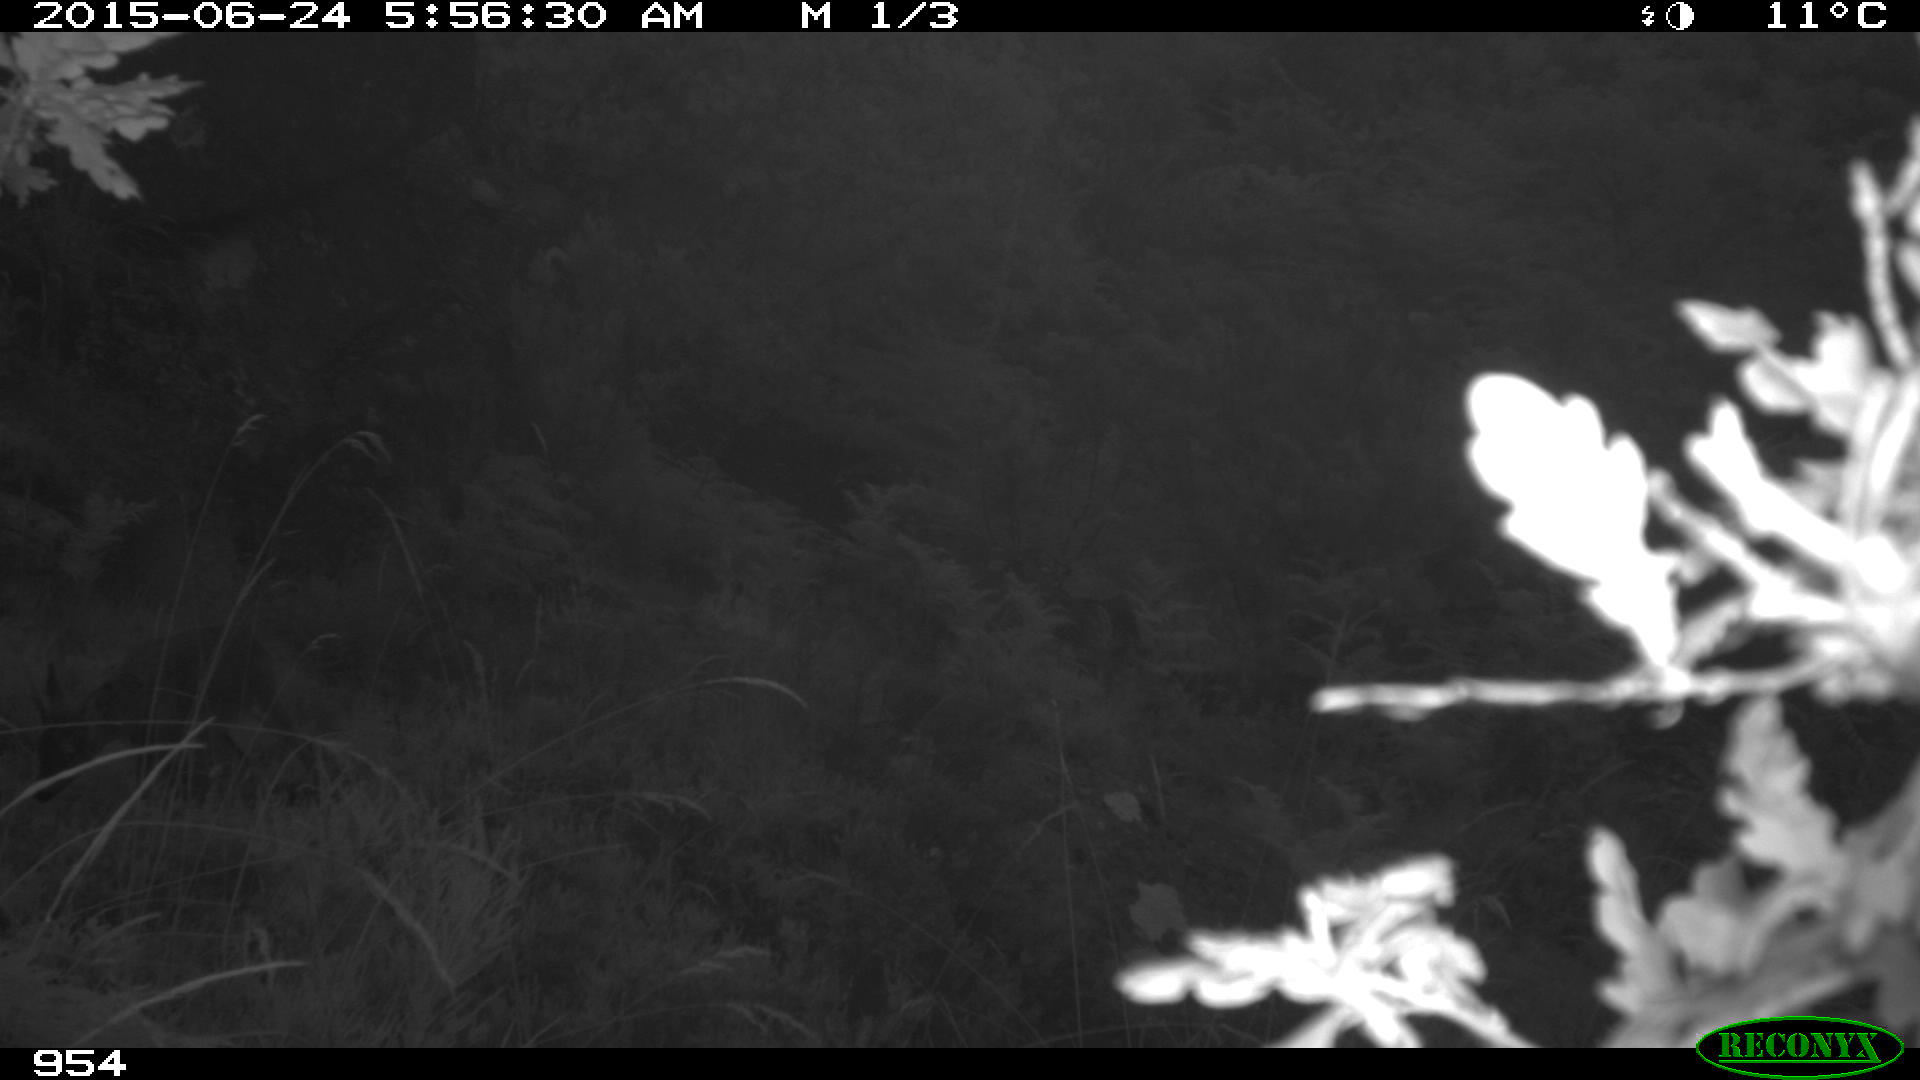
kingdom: Animalia
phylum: Chordata
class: Mammalia
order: Artiodactyla
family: Cervidae
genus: Capreolus
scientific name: Capreolus capreolus
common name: Western roe deer
